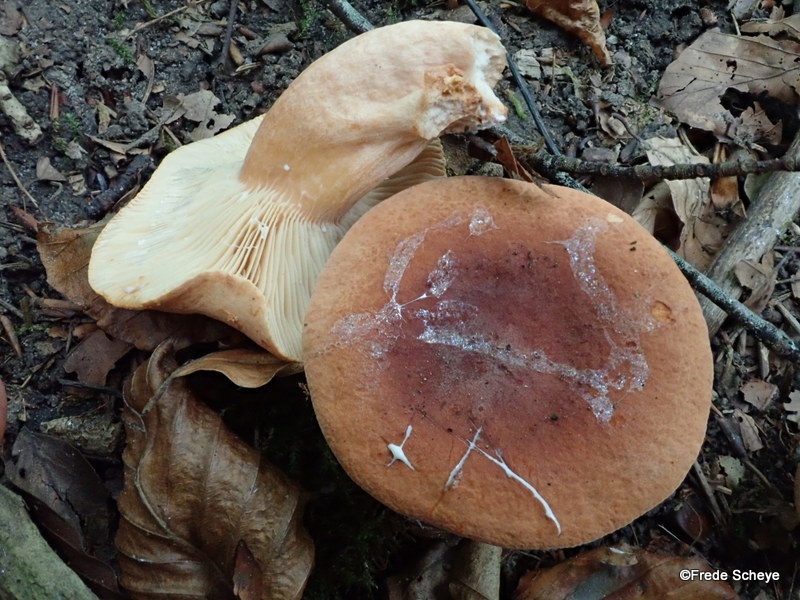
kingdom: Fungi
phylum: Basidiomycota
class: Agaricomycetes
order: Russulales
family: Russulaceae
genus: Lactarius
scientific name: Lactarius fulvissimus
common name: ræve-mælkehat
